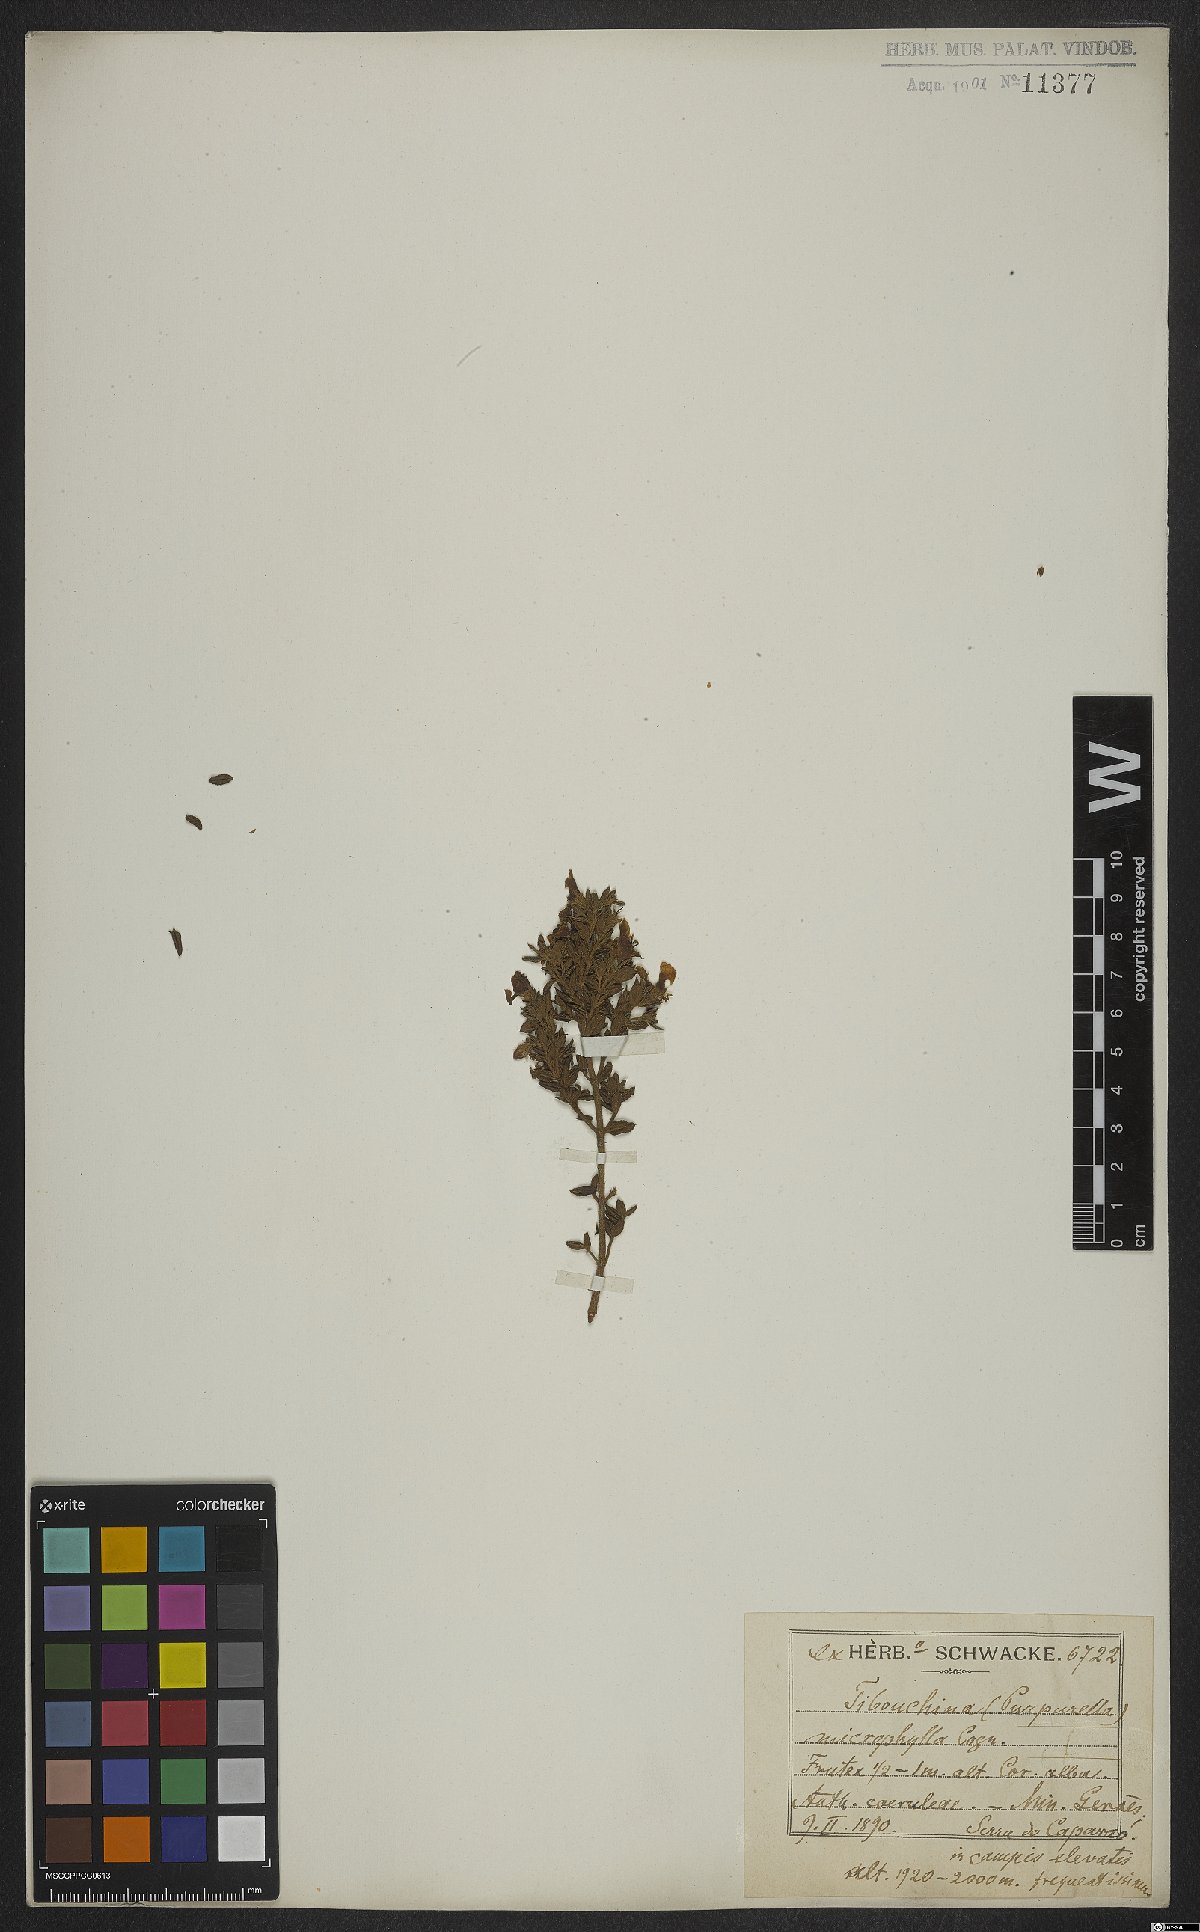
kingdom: Plantae
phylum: Tracheophyta
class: Magnoliopsida
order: Myrtales
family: Melastomataceae
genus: Pleroma
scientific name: Pleroma microphyllum
